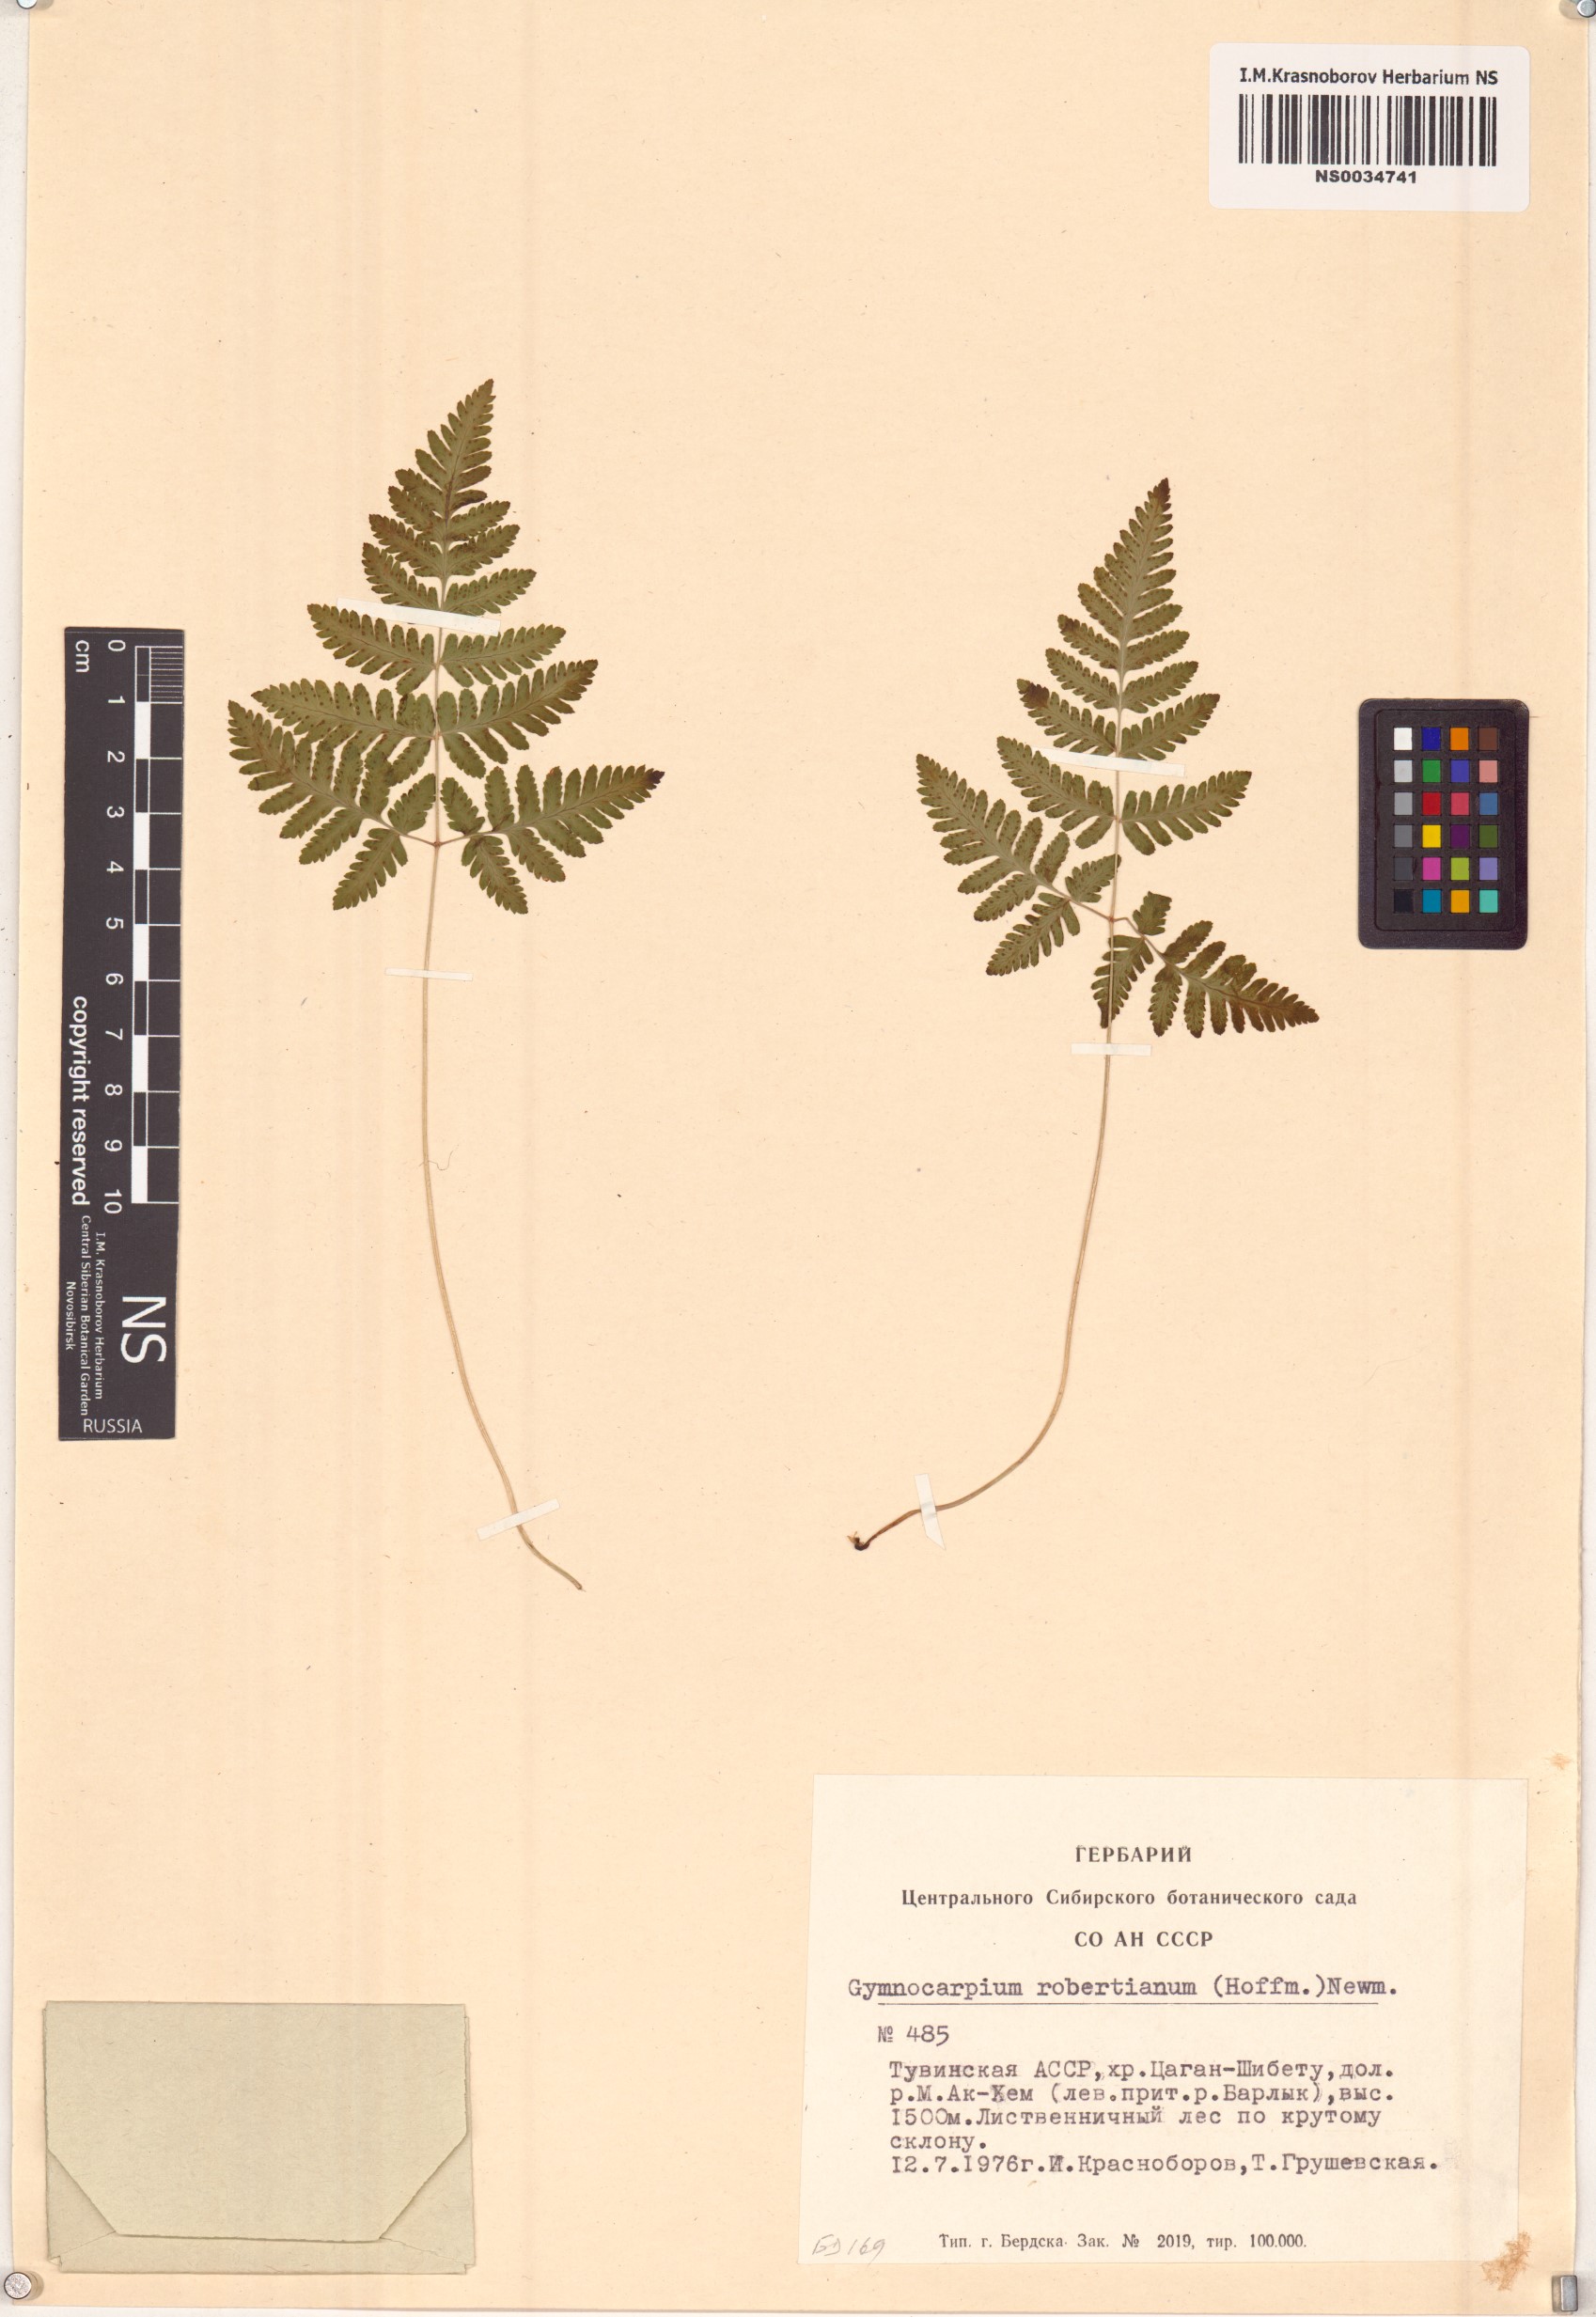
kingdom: Plantae
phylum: Tracheophyta
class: Polypodiopsida
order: Polypodiales
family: Cystopteridaceae
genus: Gymnocarpium
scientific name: Gymnocarpium robertianum
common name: Limestone fern
